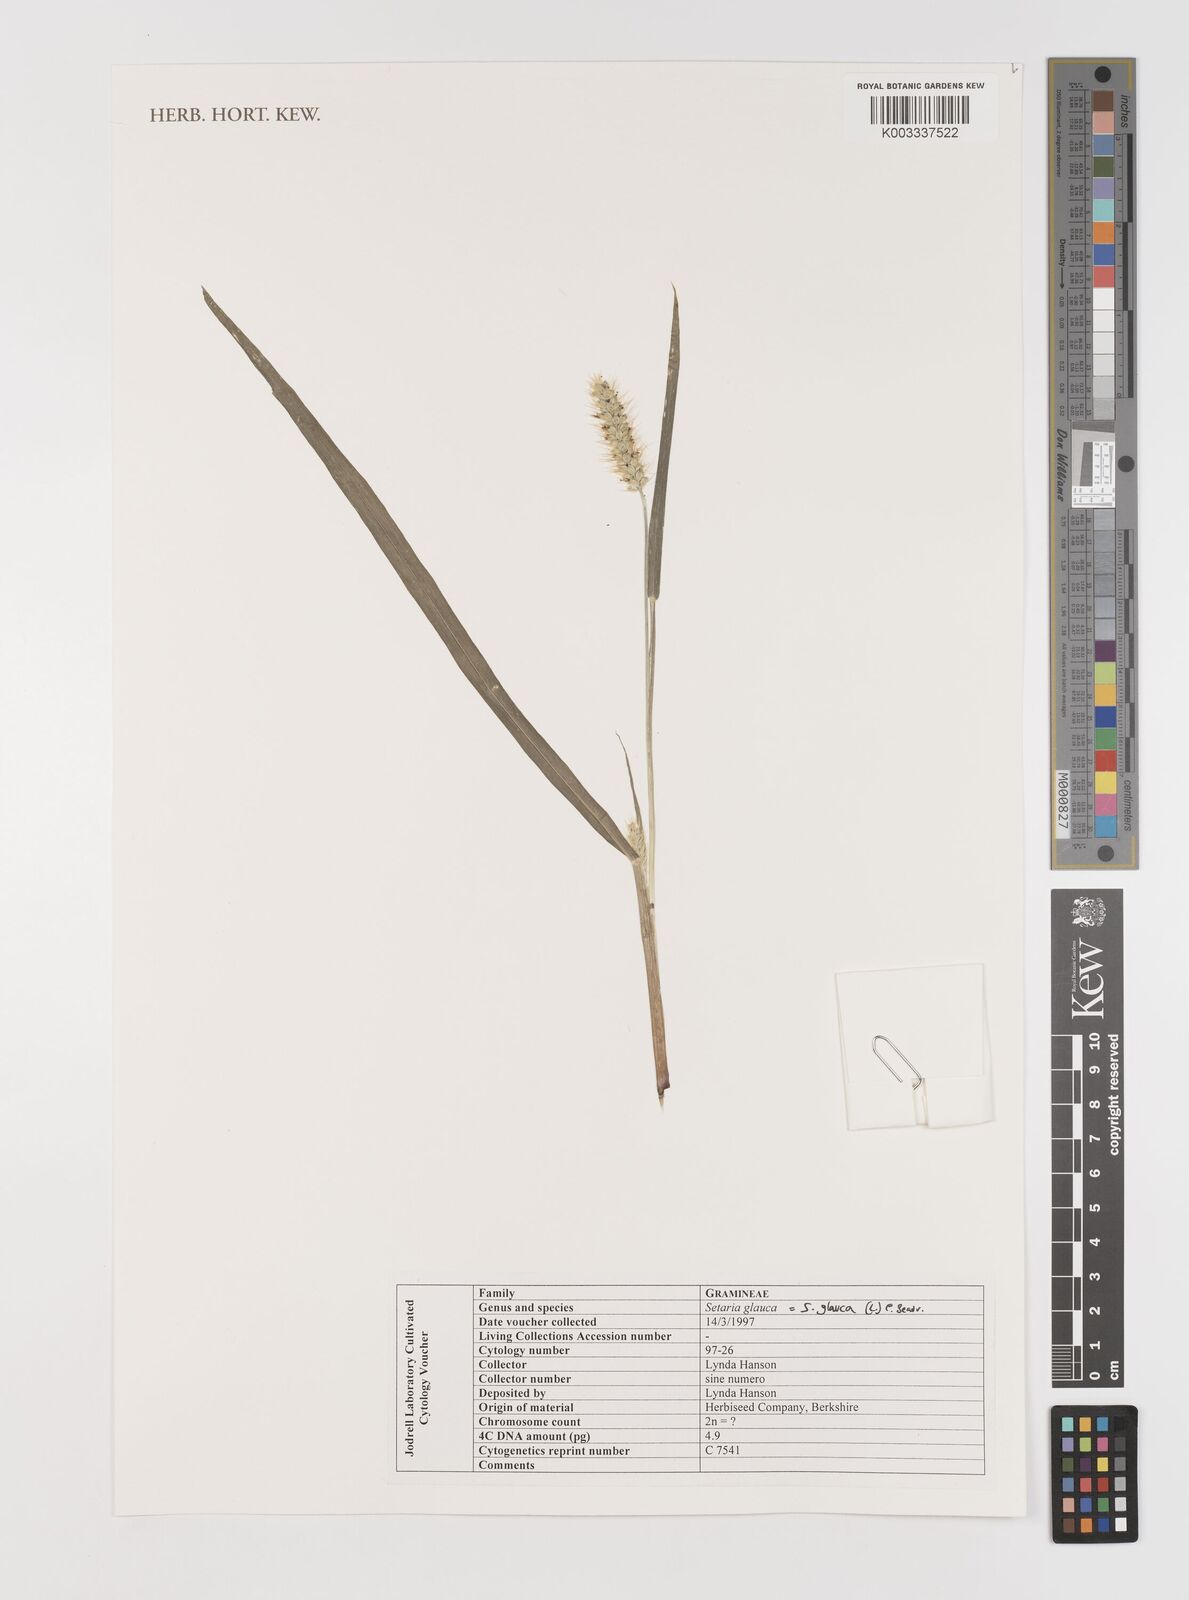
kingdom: Plantae
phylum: Tracheophyta
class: Liliopsida
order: Poales
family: Poaceae
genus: Setaria
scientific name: Setaria pumila
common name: Yellow bristle-grass
